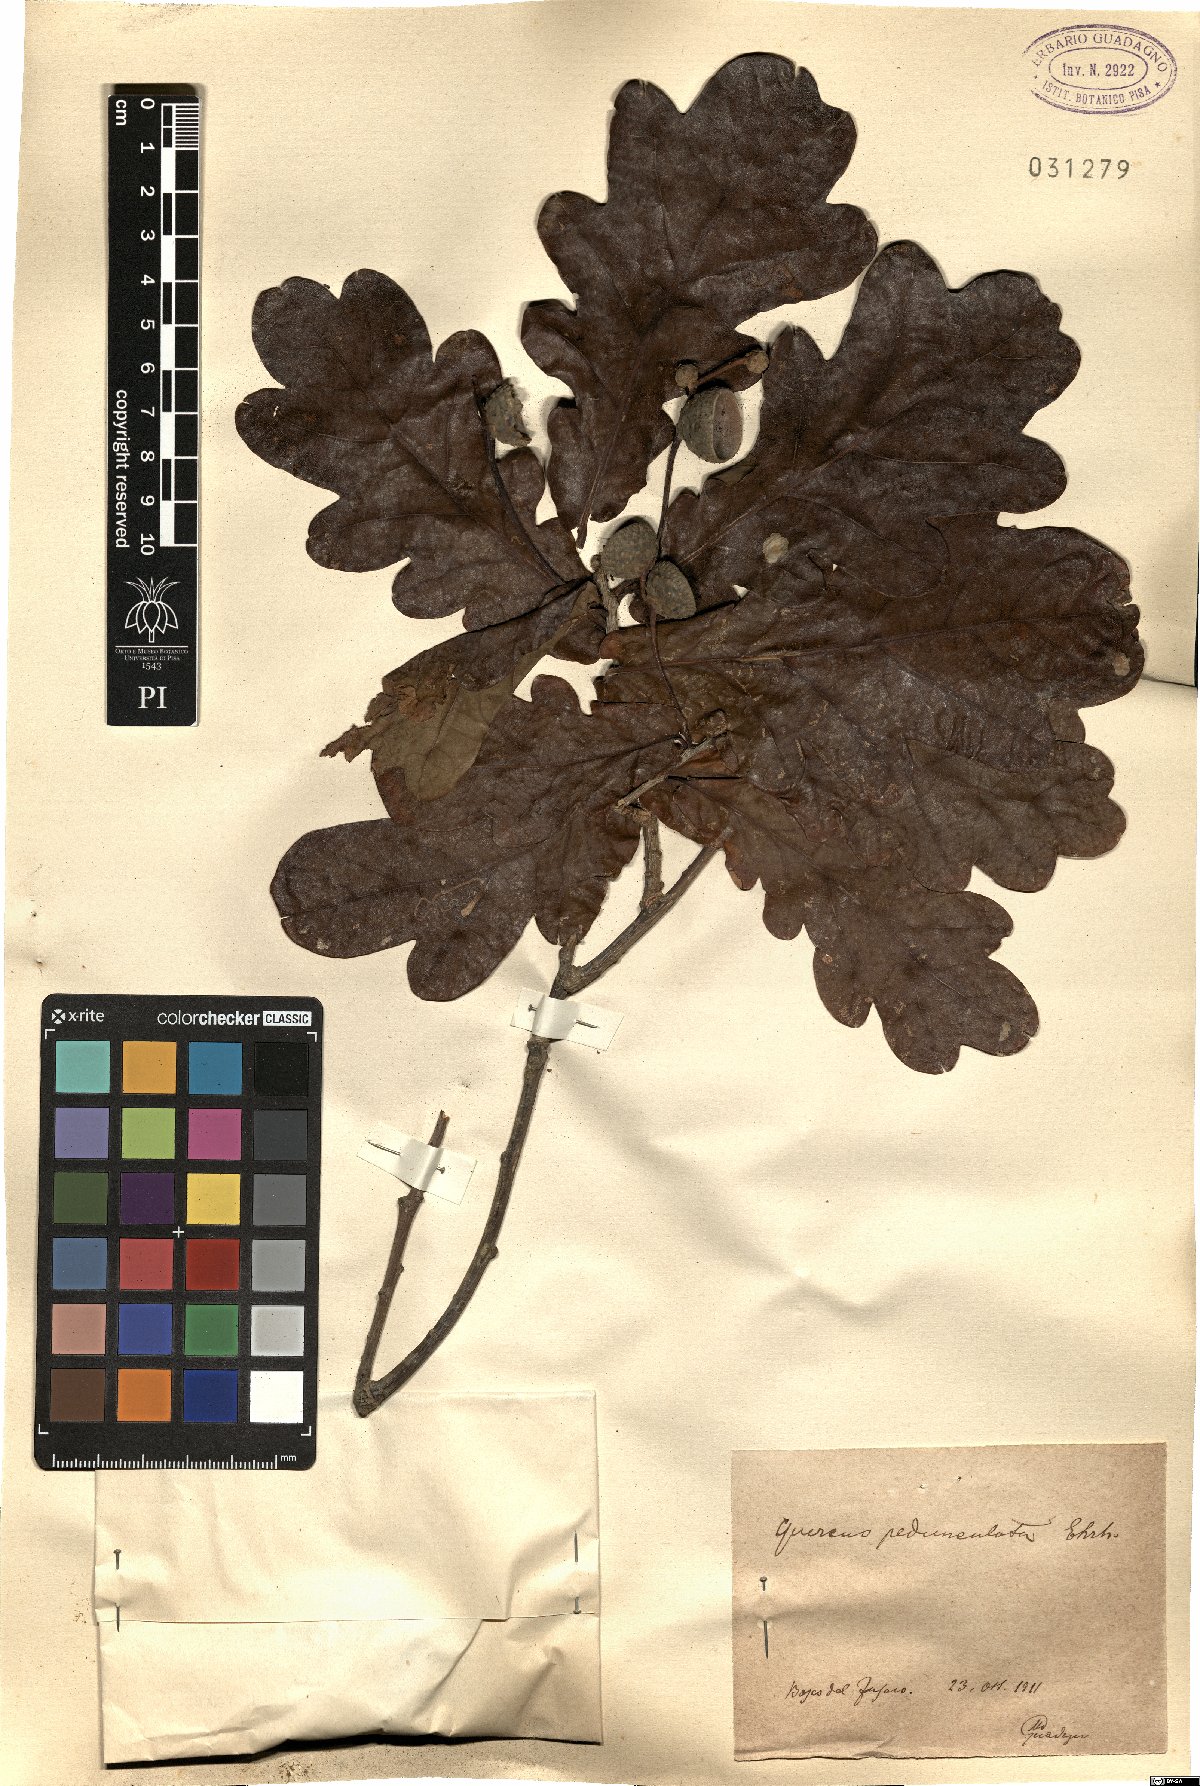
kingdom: Plantae
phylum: Tracheophyta
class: Magnoliopsida
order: Fagales
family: Fagaceae
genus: Quercus
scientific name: Quercus robur
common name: Pedunculate oak
